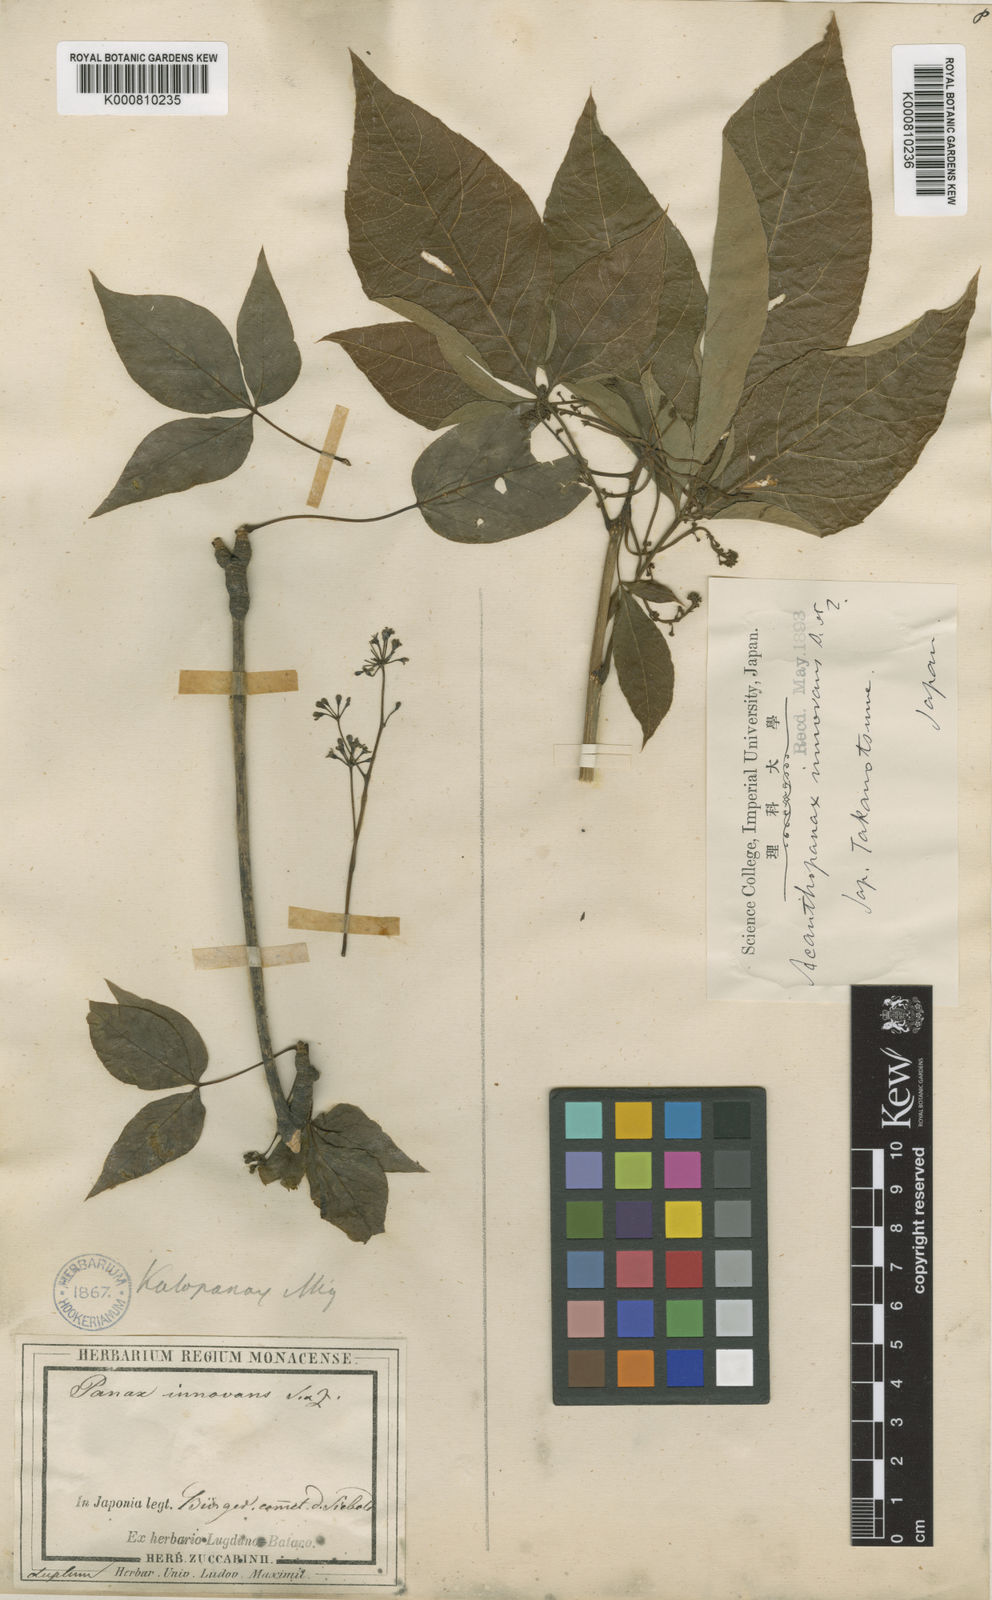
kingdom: Plantae
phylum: Tracheophyta
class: Magnoliopsida
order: Apiales
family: Araliaceae
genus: Gamblea
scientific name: Gamblea innovans
